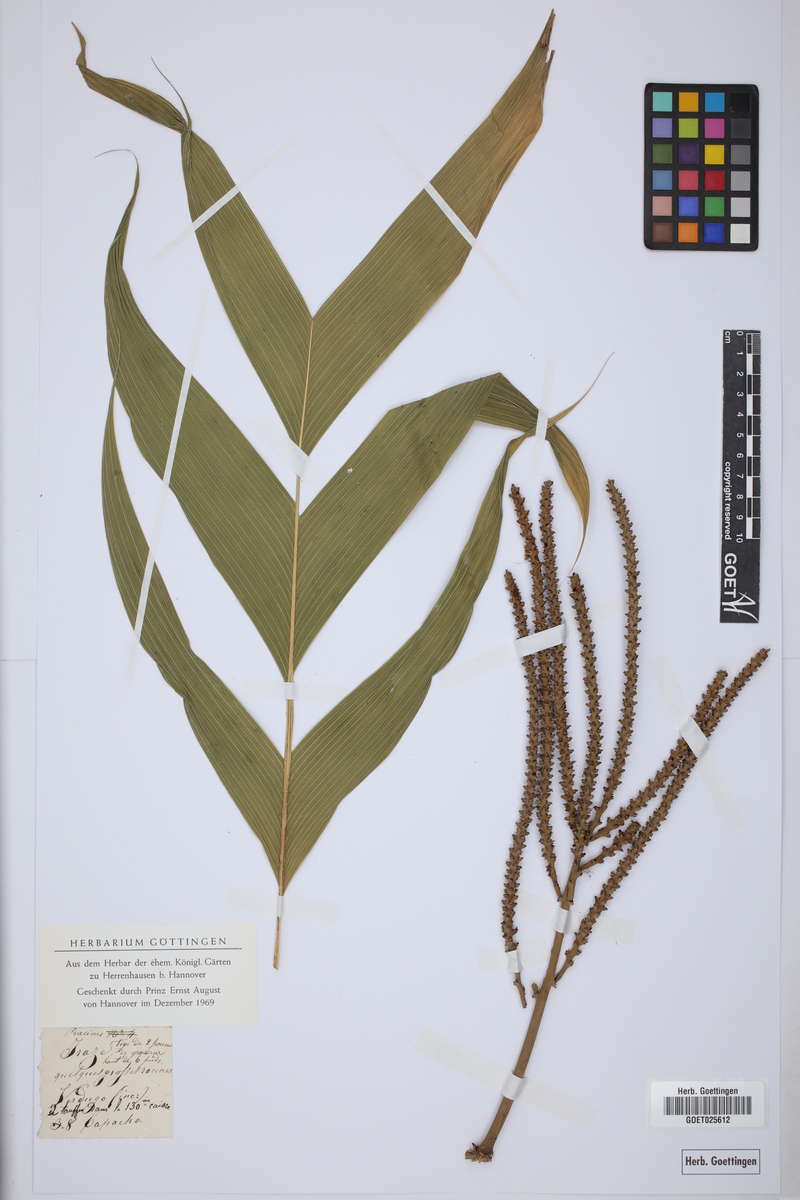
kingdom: Plantae
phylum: Tracheophyta
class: Liliopsida
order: Arecales
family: Arecaceae
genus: Geonoma
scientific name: Geonoma undata
